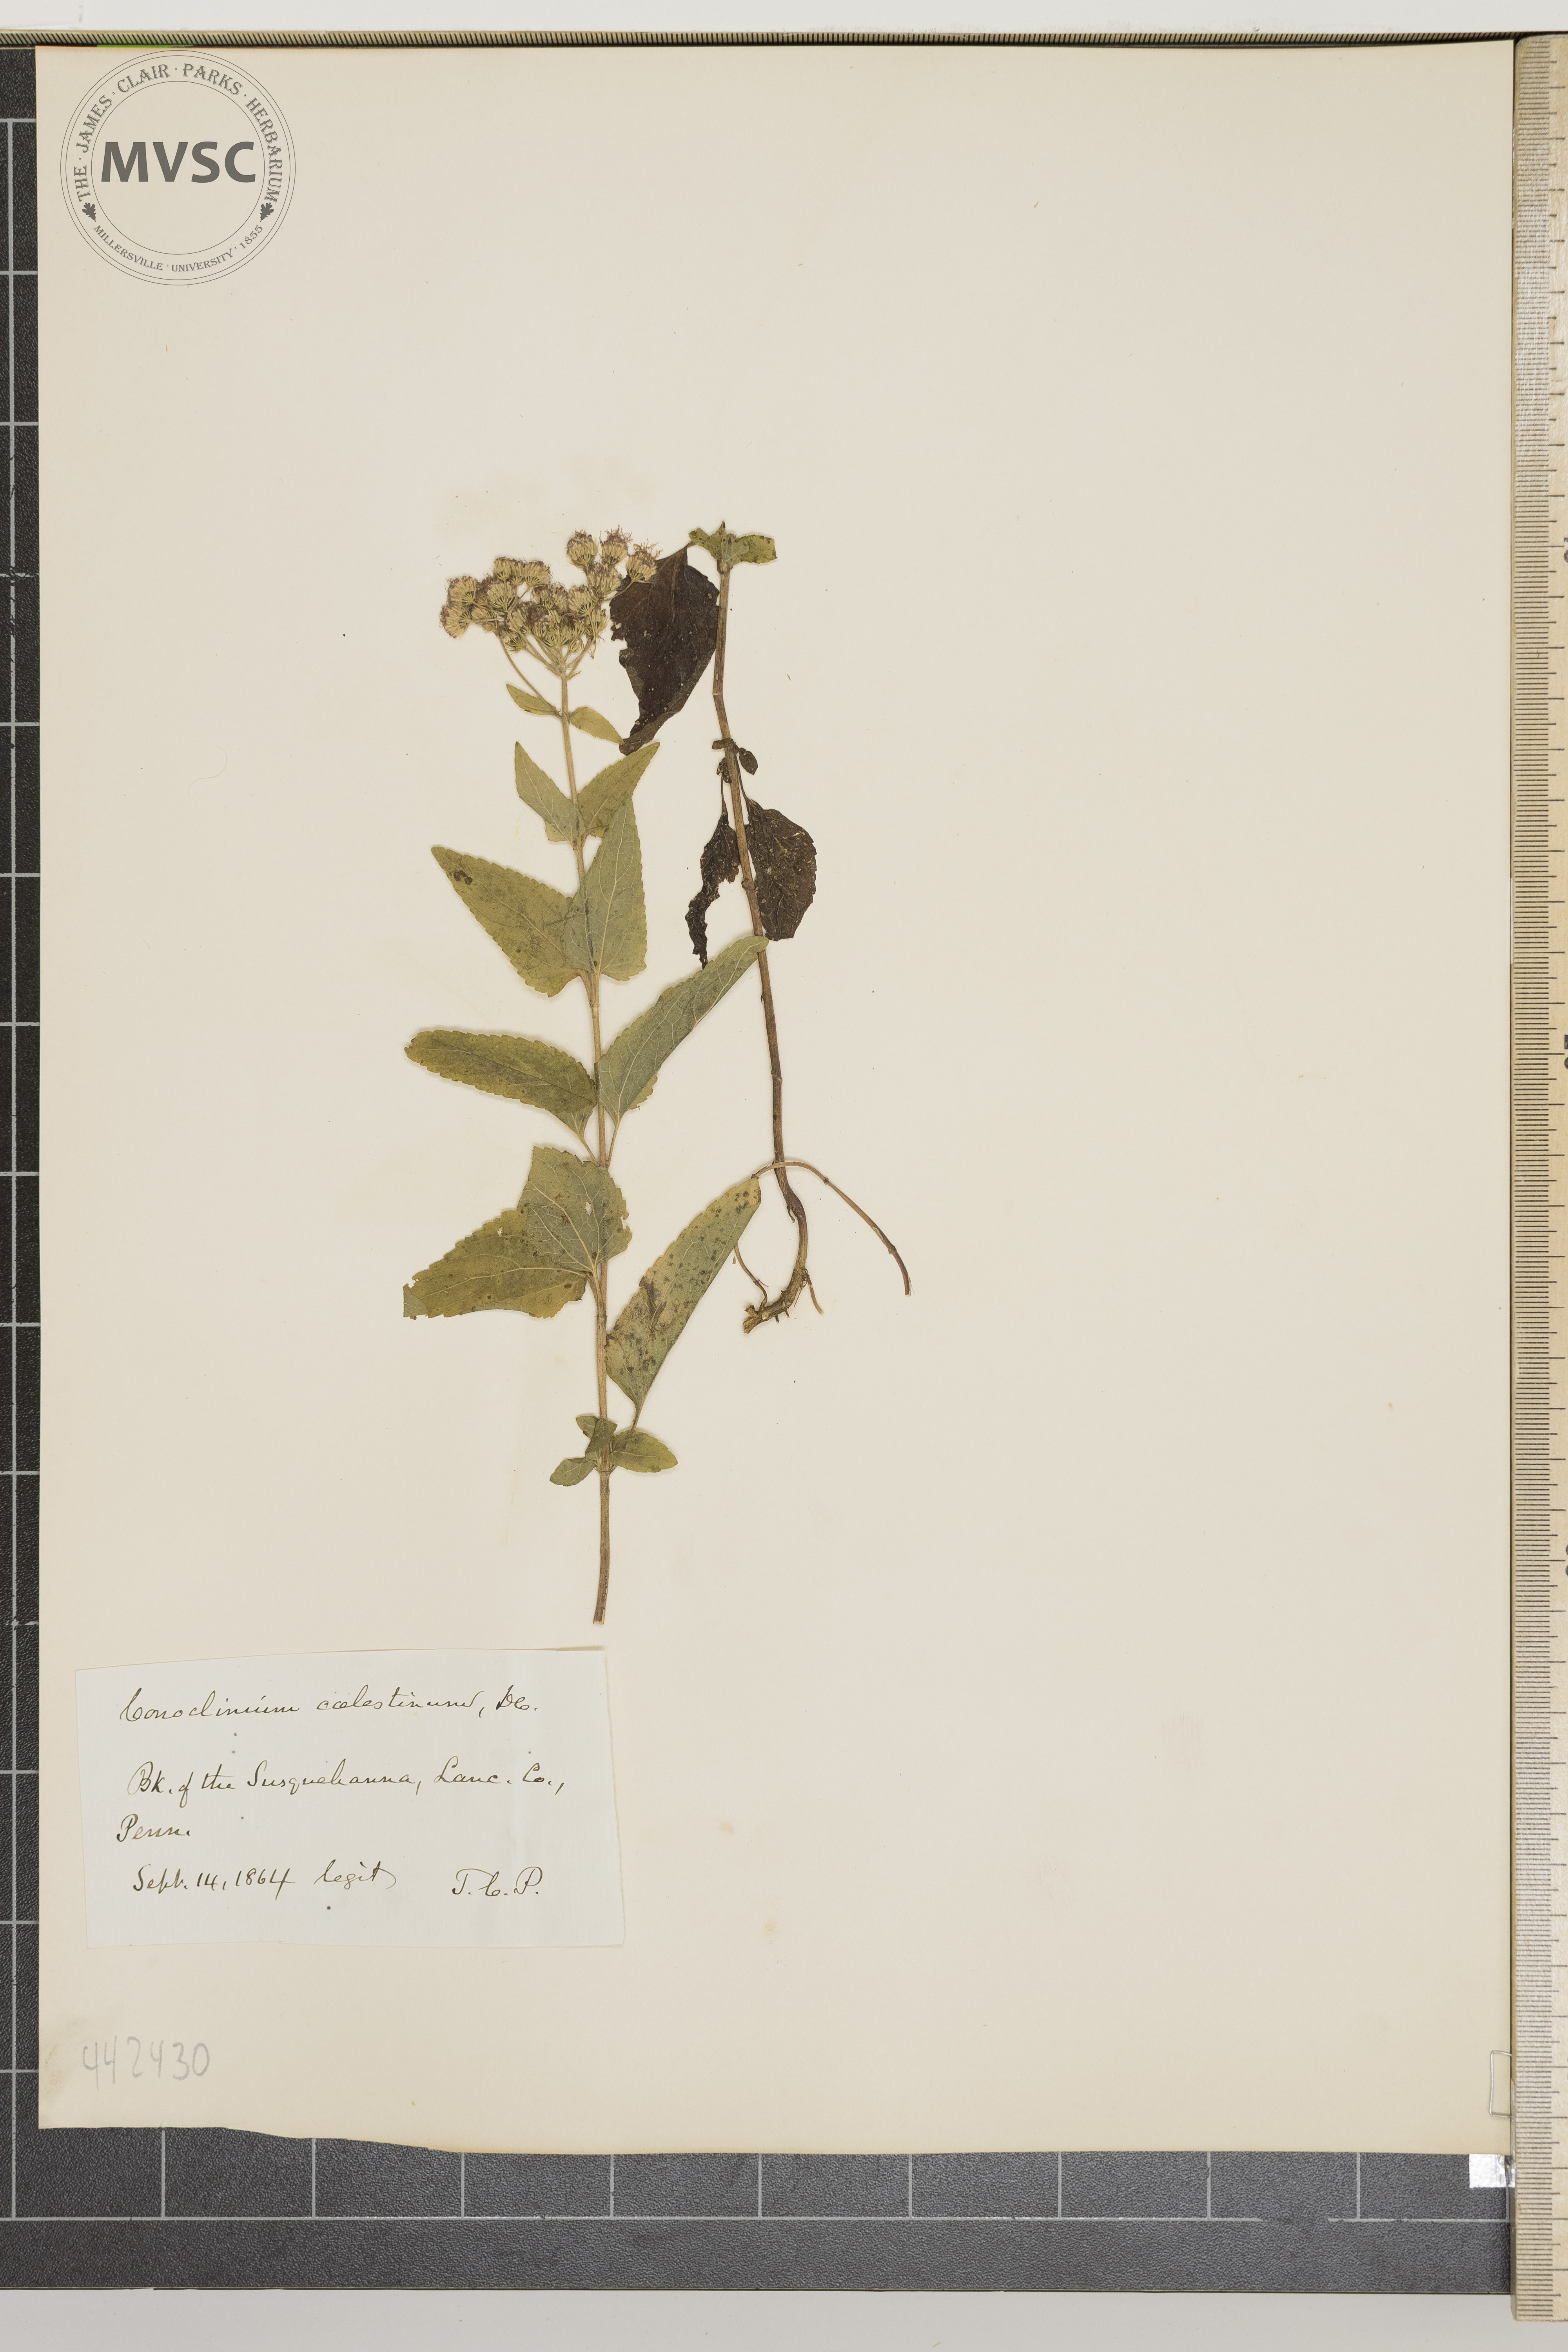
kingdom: Plantae
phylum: Tracheophyta
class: Magnoliopsida
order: Asterales
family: Asteraceae
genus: Conoclinium
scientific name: Conoclinium coelestinum
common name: Blue mistflower
